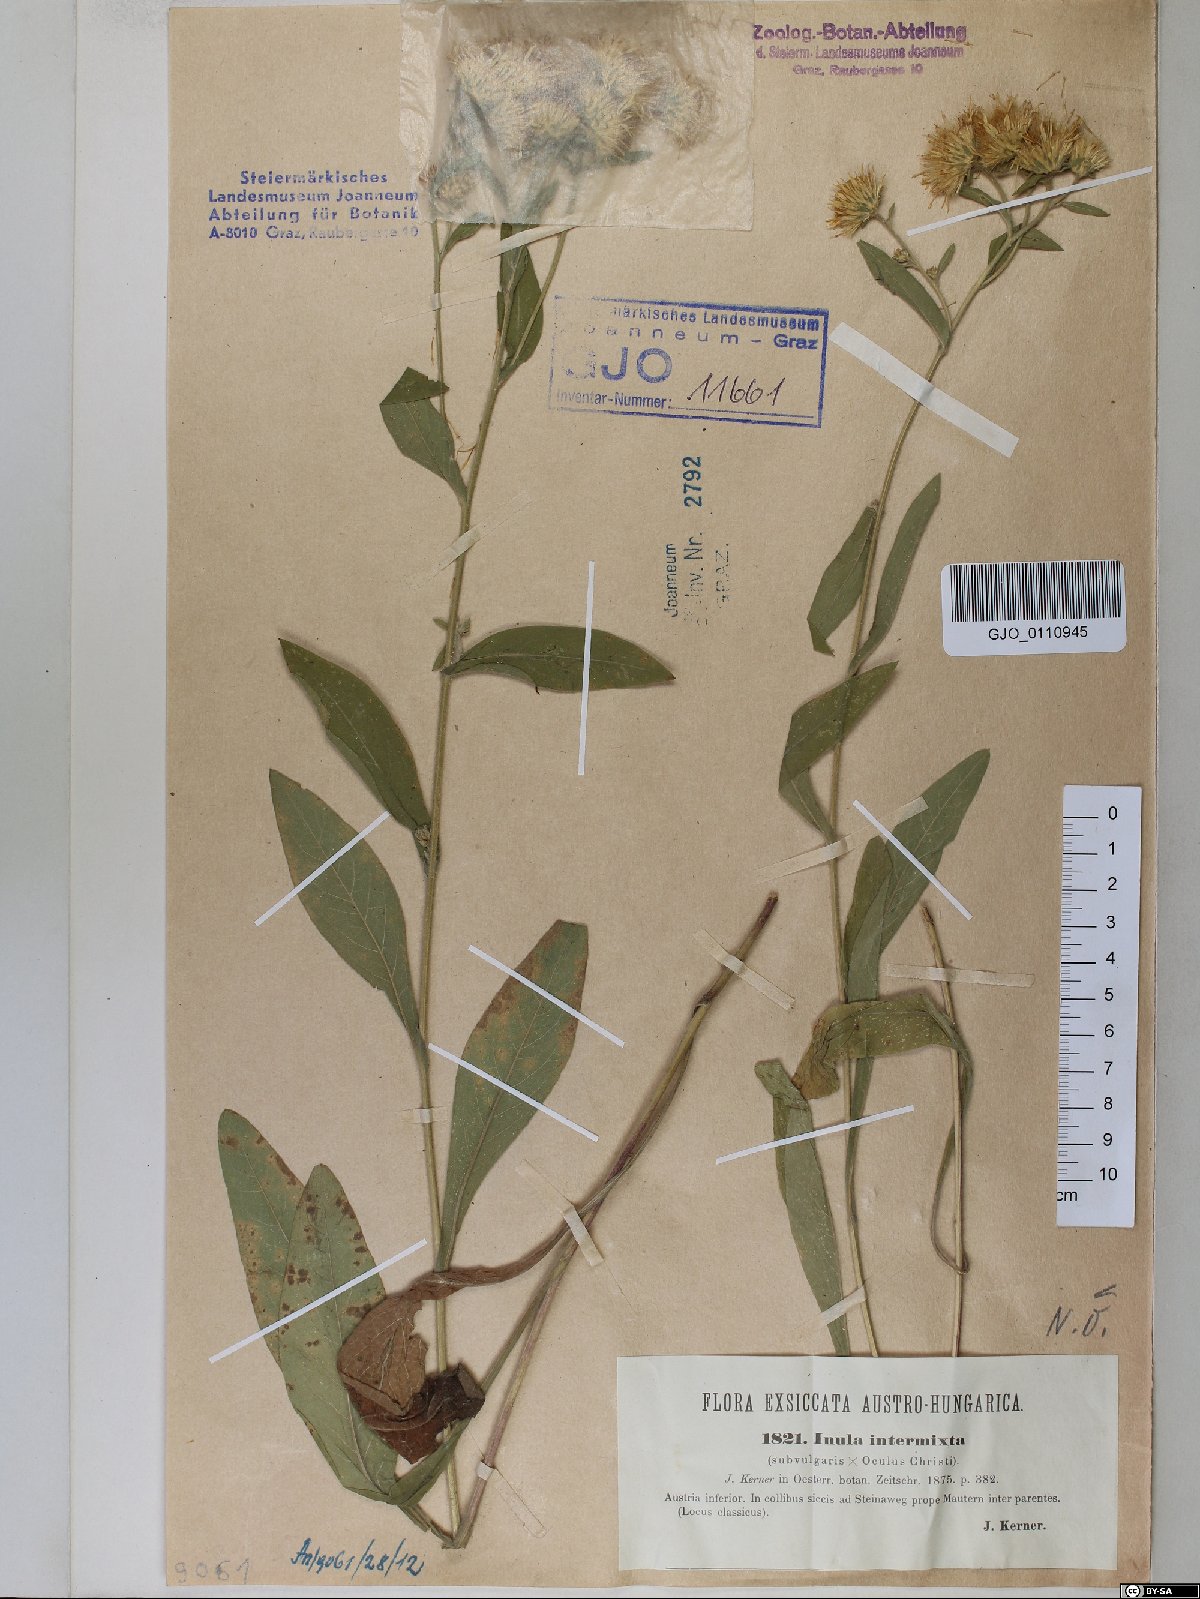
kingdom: Plantae
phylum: Tracheophyta
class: Magnoliopsida
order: Asterales
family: Asteraceae
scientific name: Asteraceae
